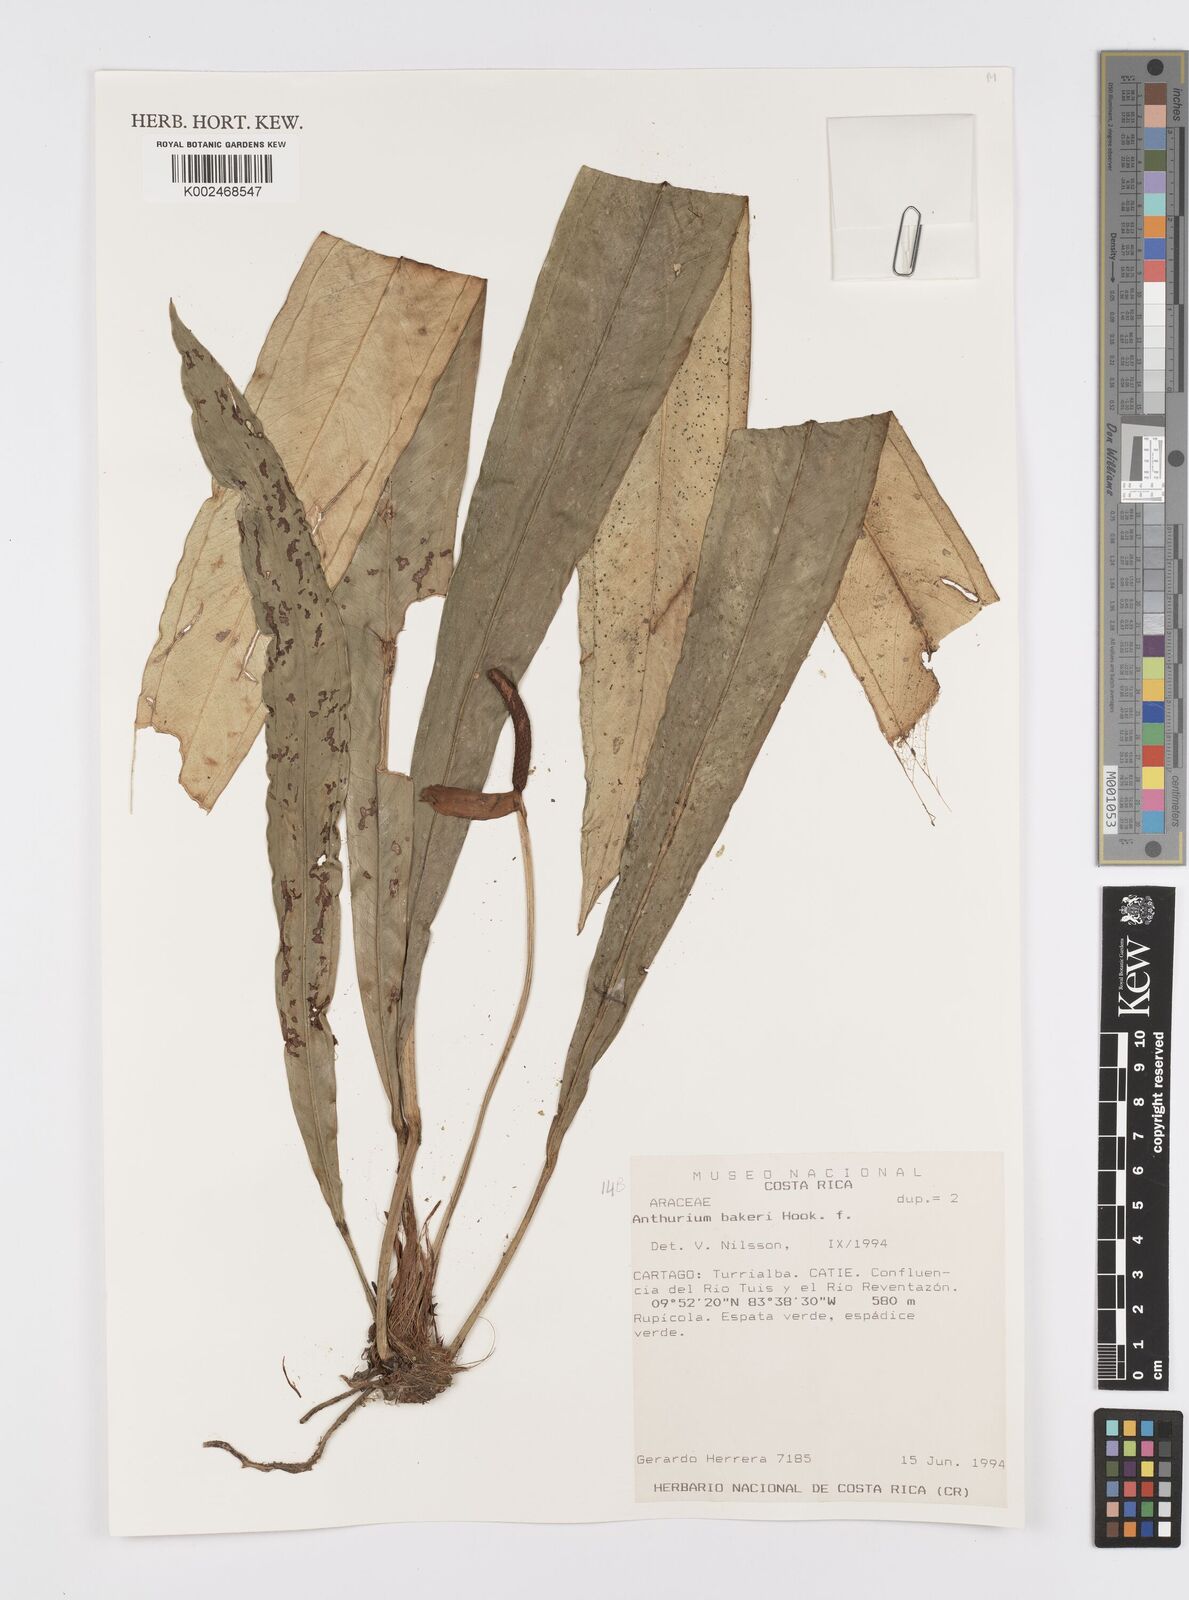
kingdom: Plantae
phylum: Tracheophyta
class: Liliopsida
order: Alismatales
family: Araceae
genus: Anthurium
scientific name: Anthurium bakeri
